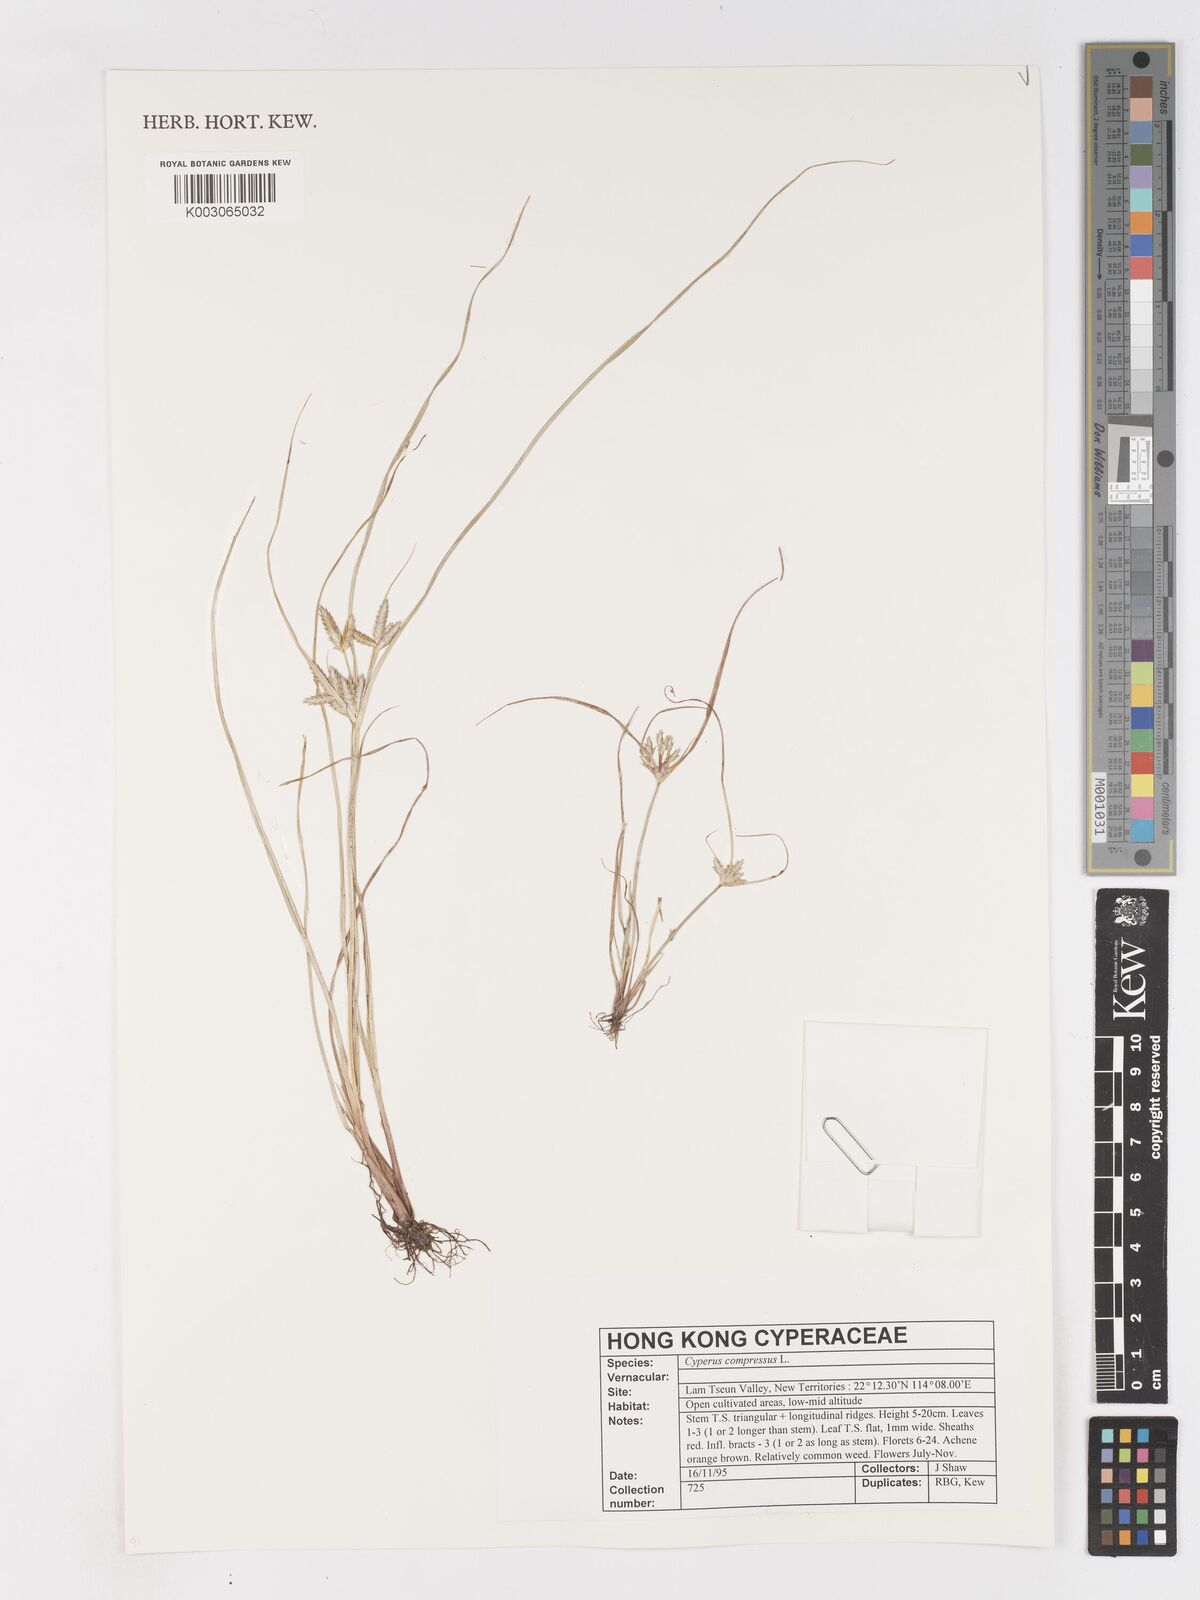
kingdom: Plantae
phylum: Tracheophyta
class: Liliopsida
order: Poales
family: Cyperaceae
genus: Cyperus
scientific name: Cyperus compressus
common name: Poorland flatsedge
